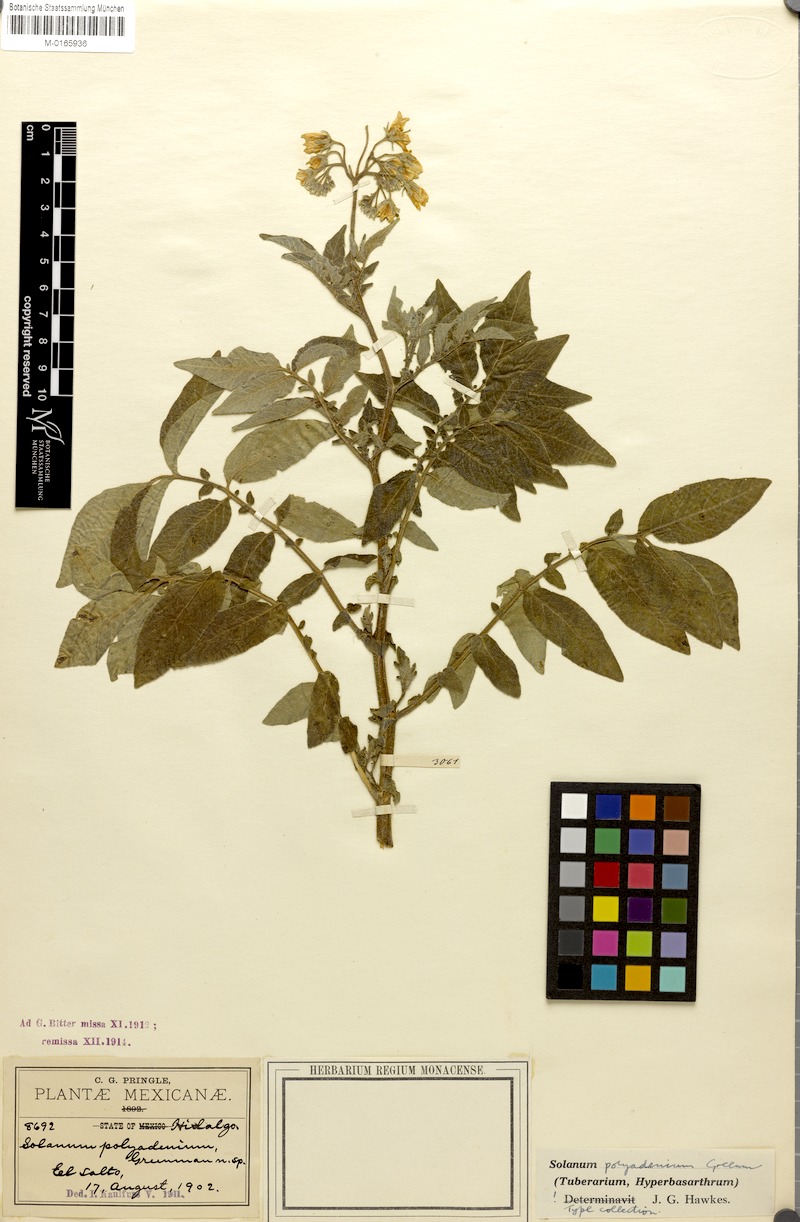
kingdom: Plantae
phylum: Tracheophyta
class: Magnoliopsida
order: Solanales
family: Solanaceae
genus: Solanum
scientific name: Solanum polyadenium
